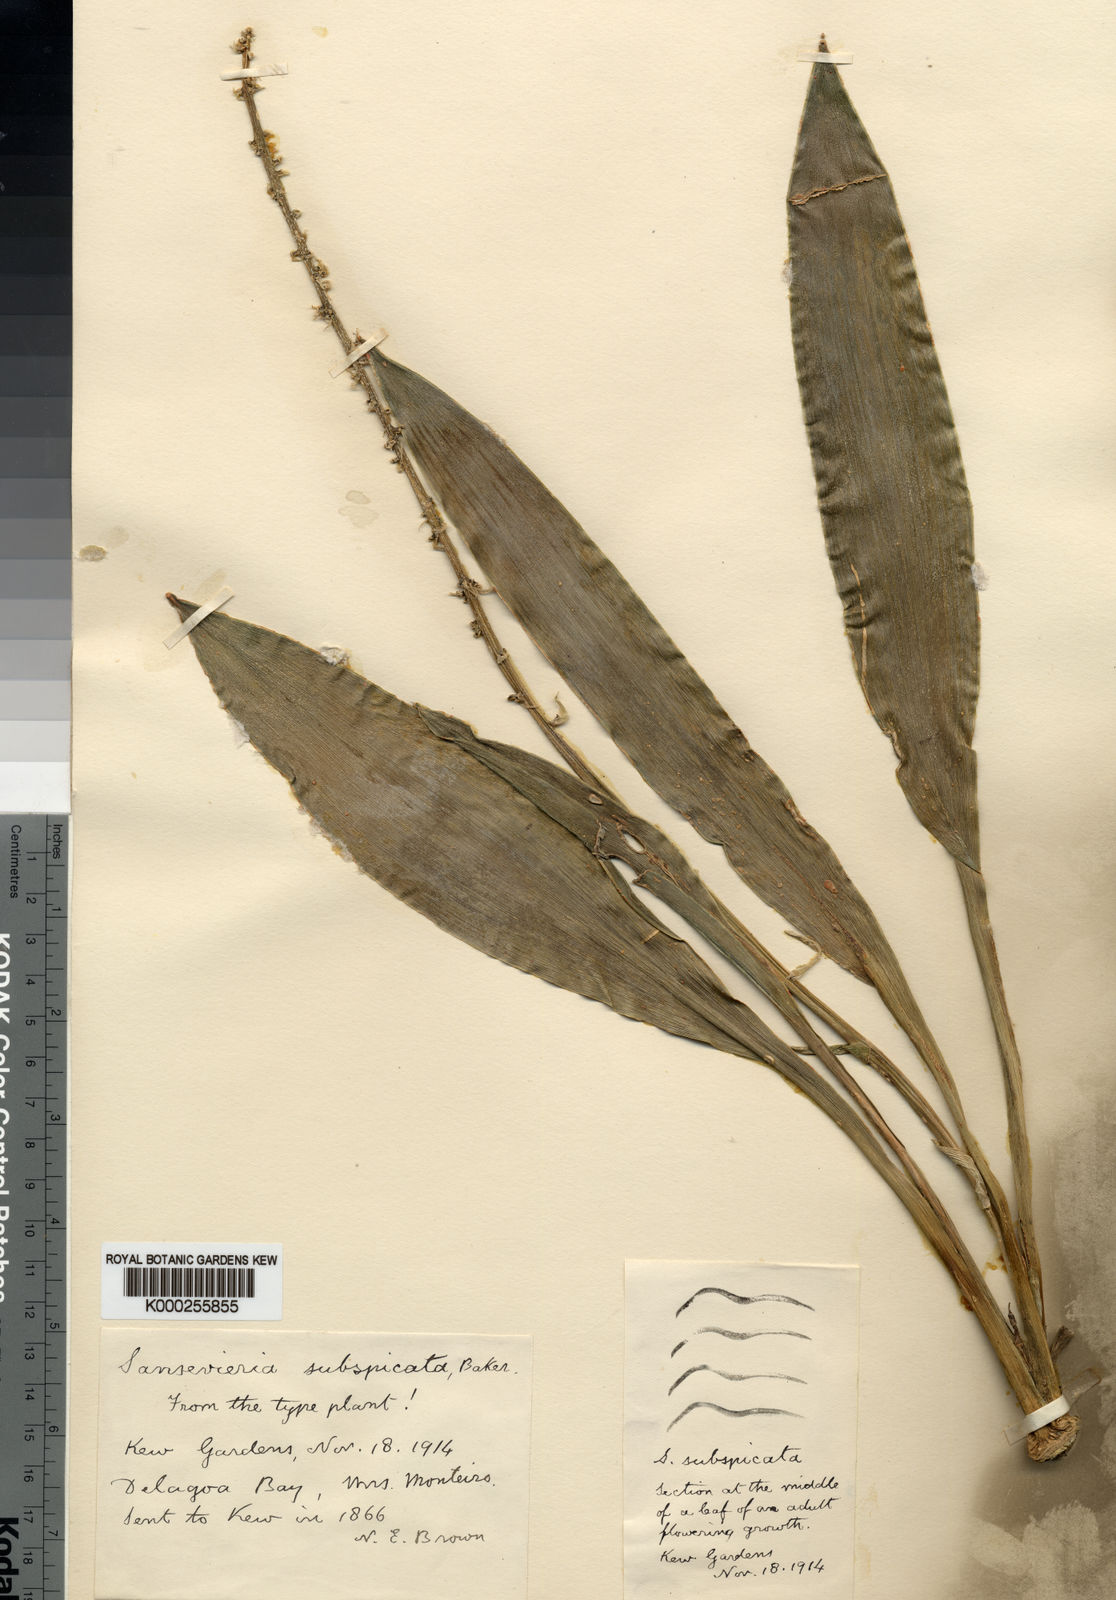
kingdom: Plantae
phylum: Tracheophyta
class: Liliopsida
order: Asparagales
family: Asparagaceae
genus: Dracaena
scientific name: Dracaena subspicata
